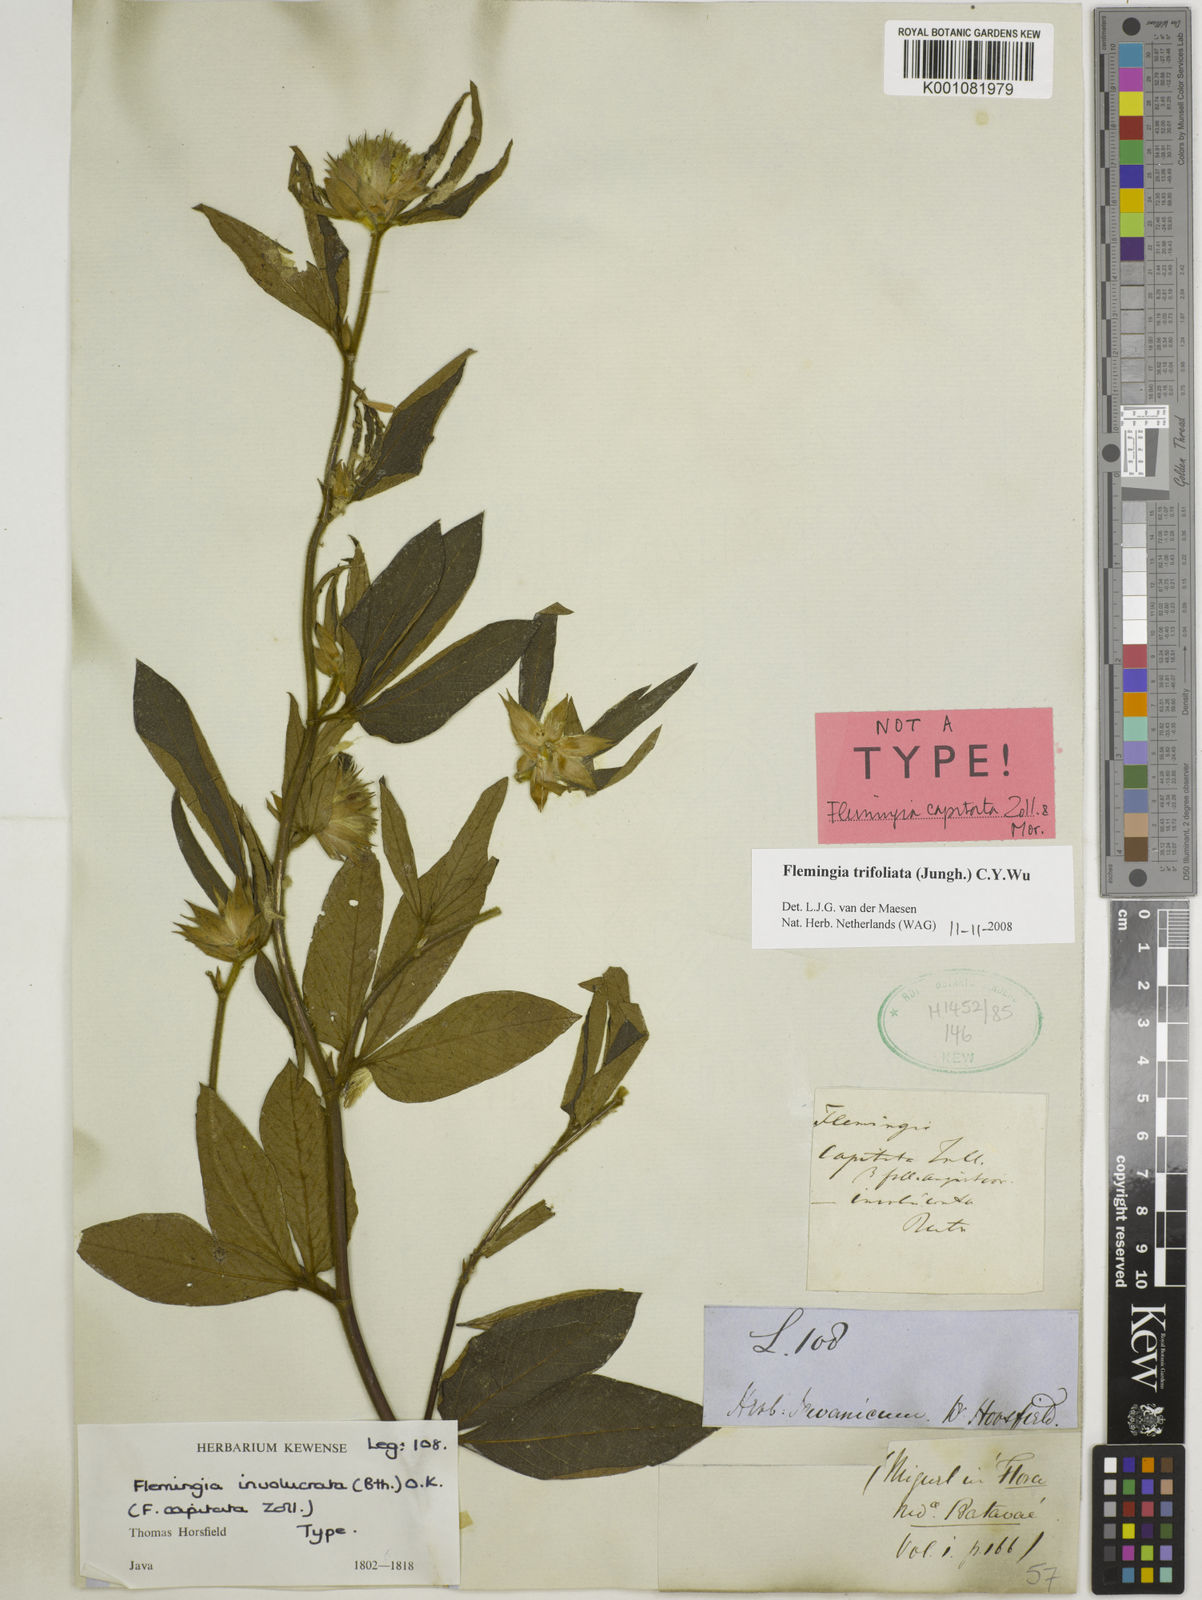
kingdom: Plantae
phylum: Tracheophyta
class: Magnoliopsida
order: Fabales
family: Fabaceae
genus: Flemingia
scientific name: Flemingia trifoliata
